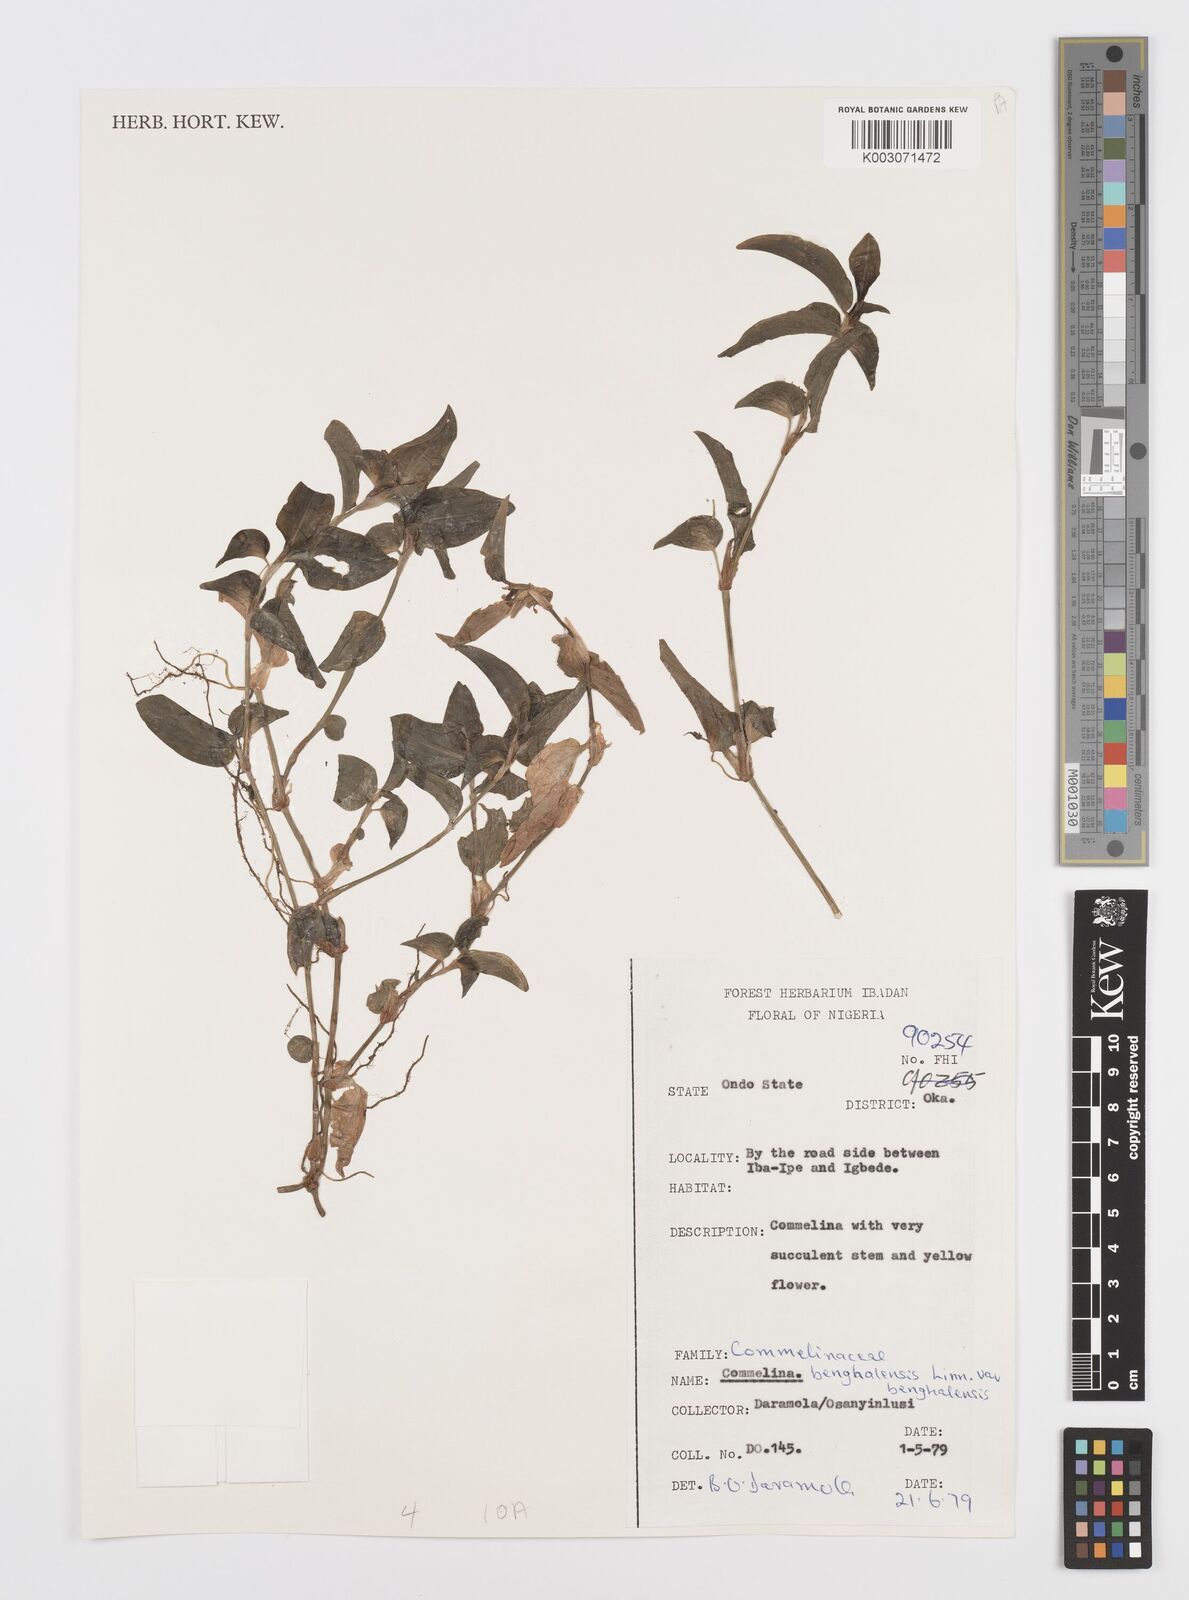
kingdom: Plantae
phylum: Tracheophyta
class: Liliopsida
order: Commelinales
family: Commelinaceae
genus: Commelina
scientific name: Commelina benghalensis
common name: Jio
